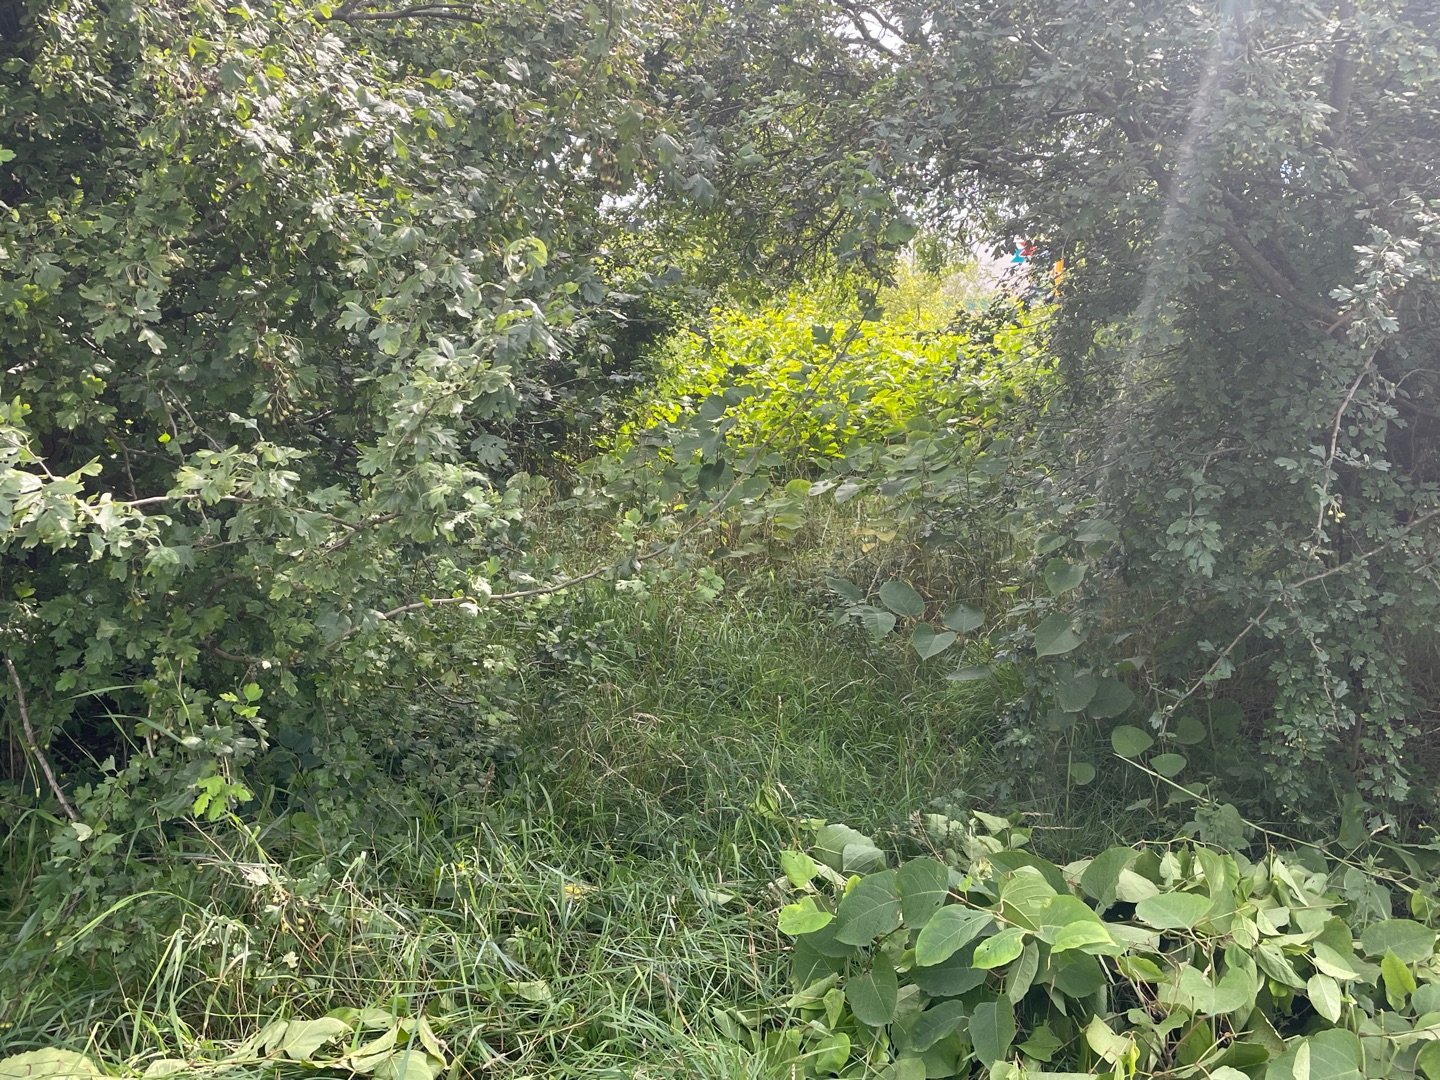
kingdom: Plantae
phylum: Tracheophyta
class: Magnoliopsida
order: Caryophyllales
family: Polygonaceae
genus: Reynoutria
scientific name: Reynoutria japonica
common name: Japan-pileurt
